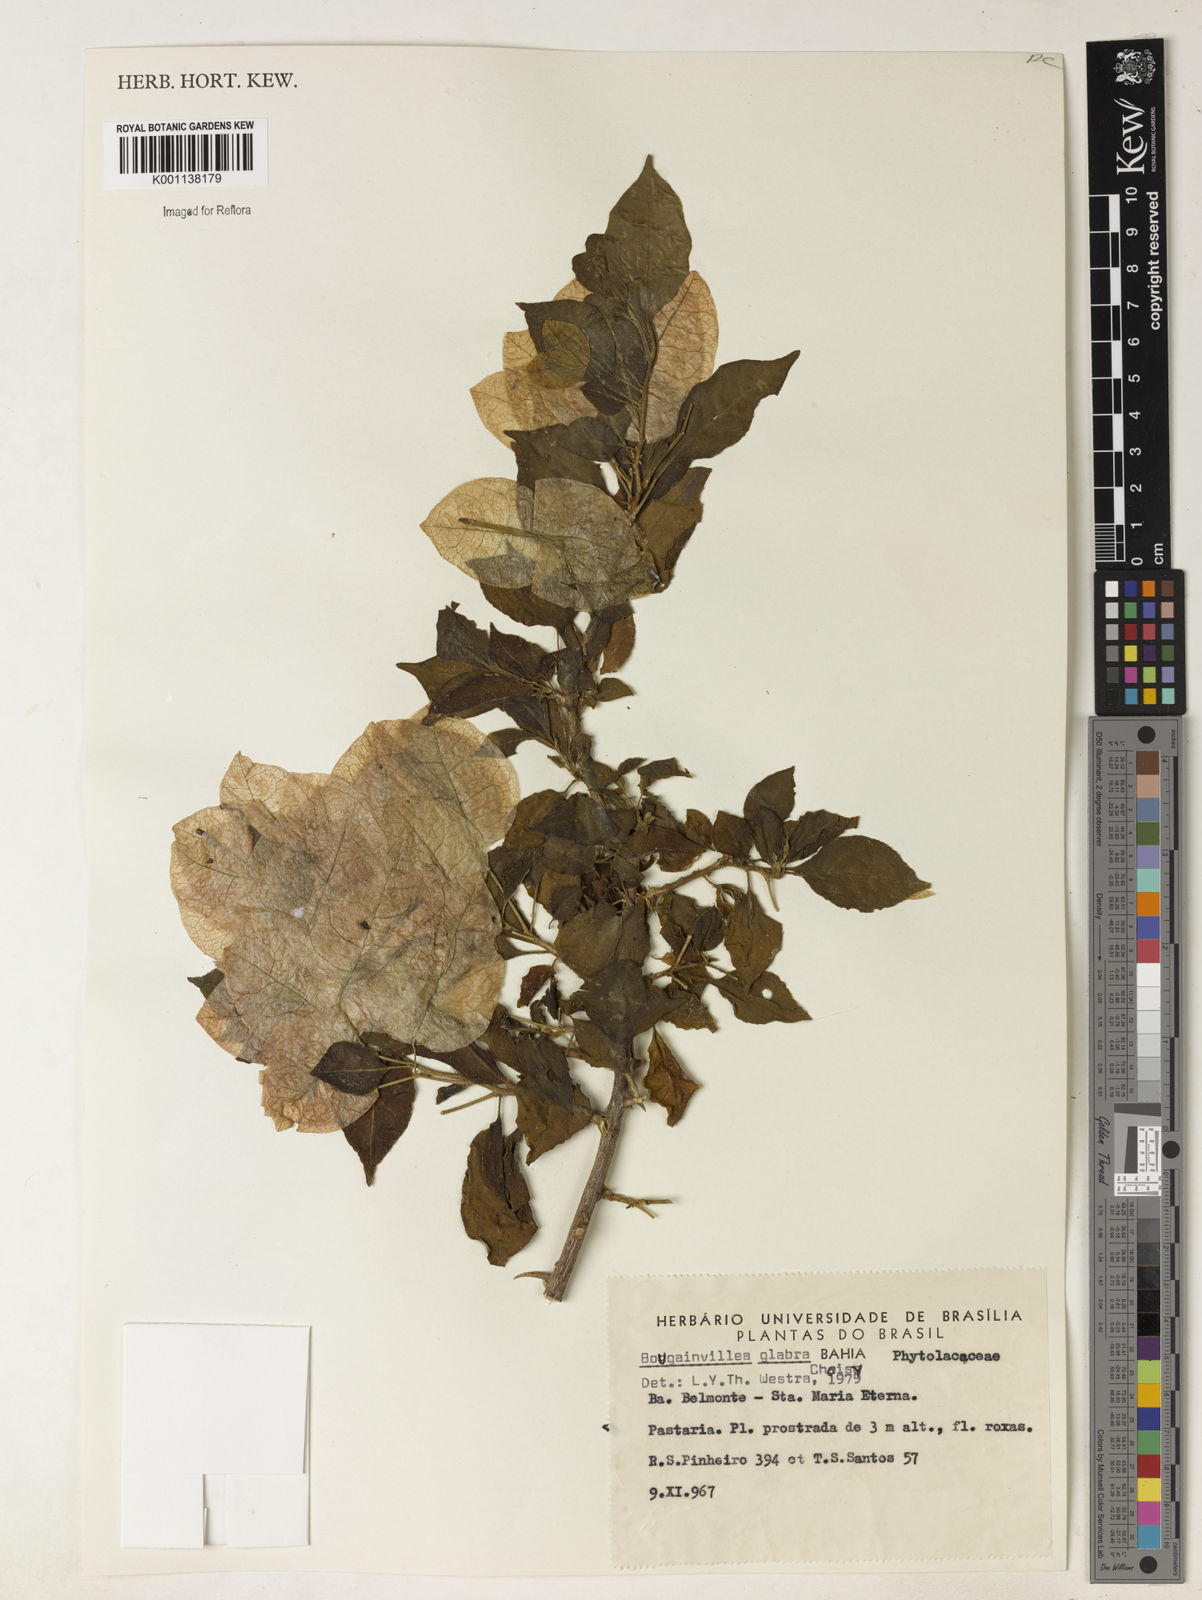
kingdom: Plantae
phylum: Tracheophyta
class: Magnoliopsida
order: Caryophyllales
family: Nyctaginaceae
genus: Bougainvillea
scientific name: Bougainvillea glabra
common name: Paperflower
